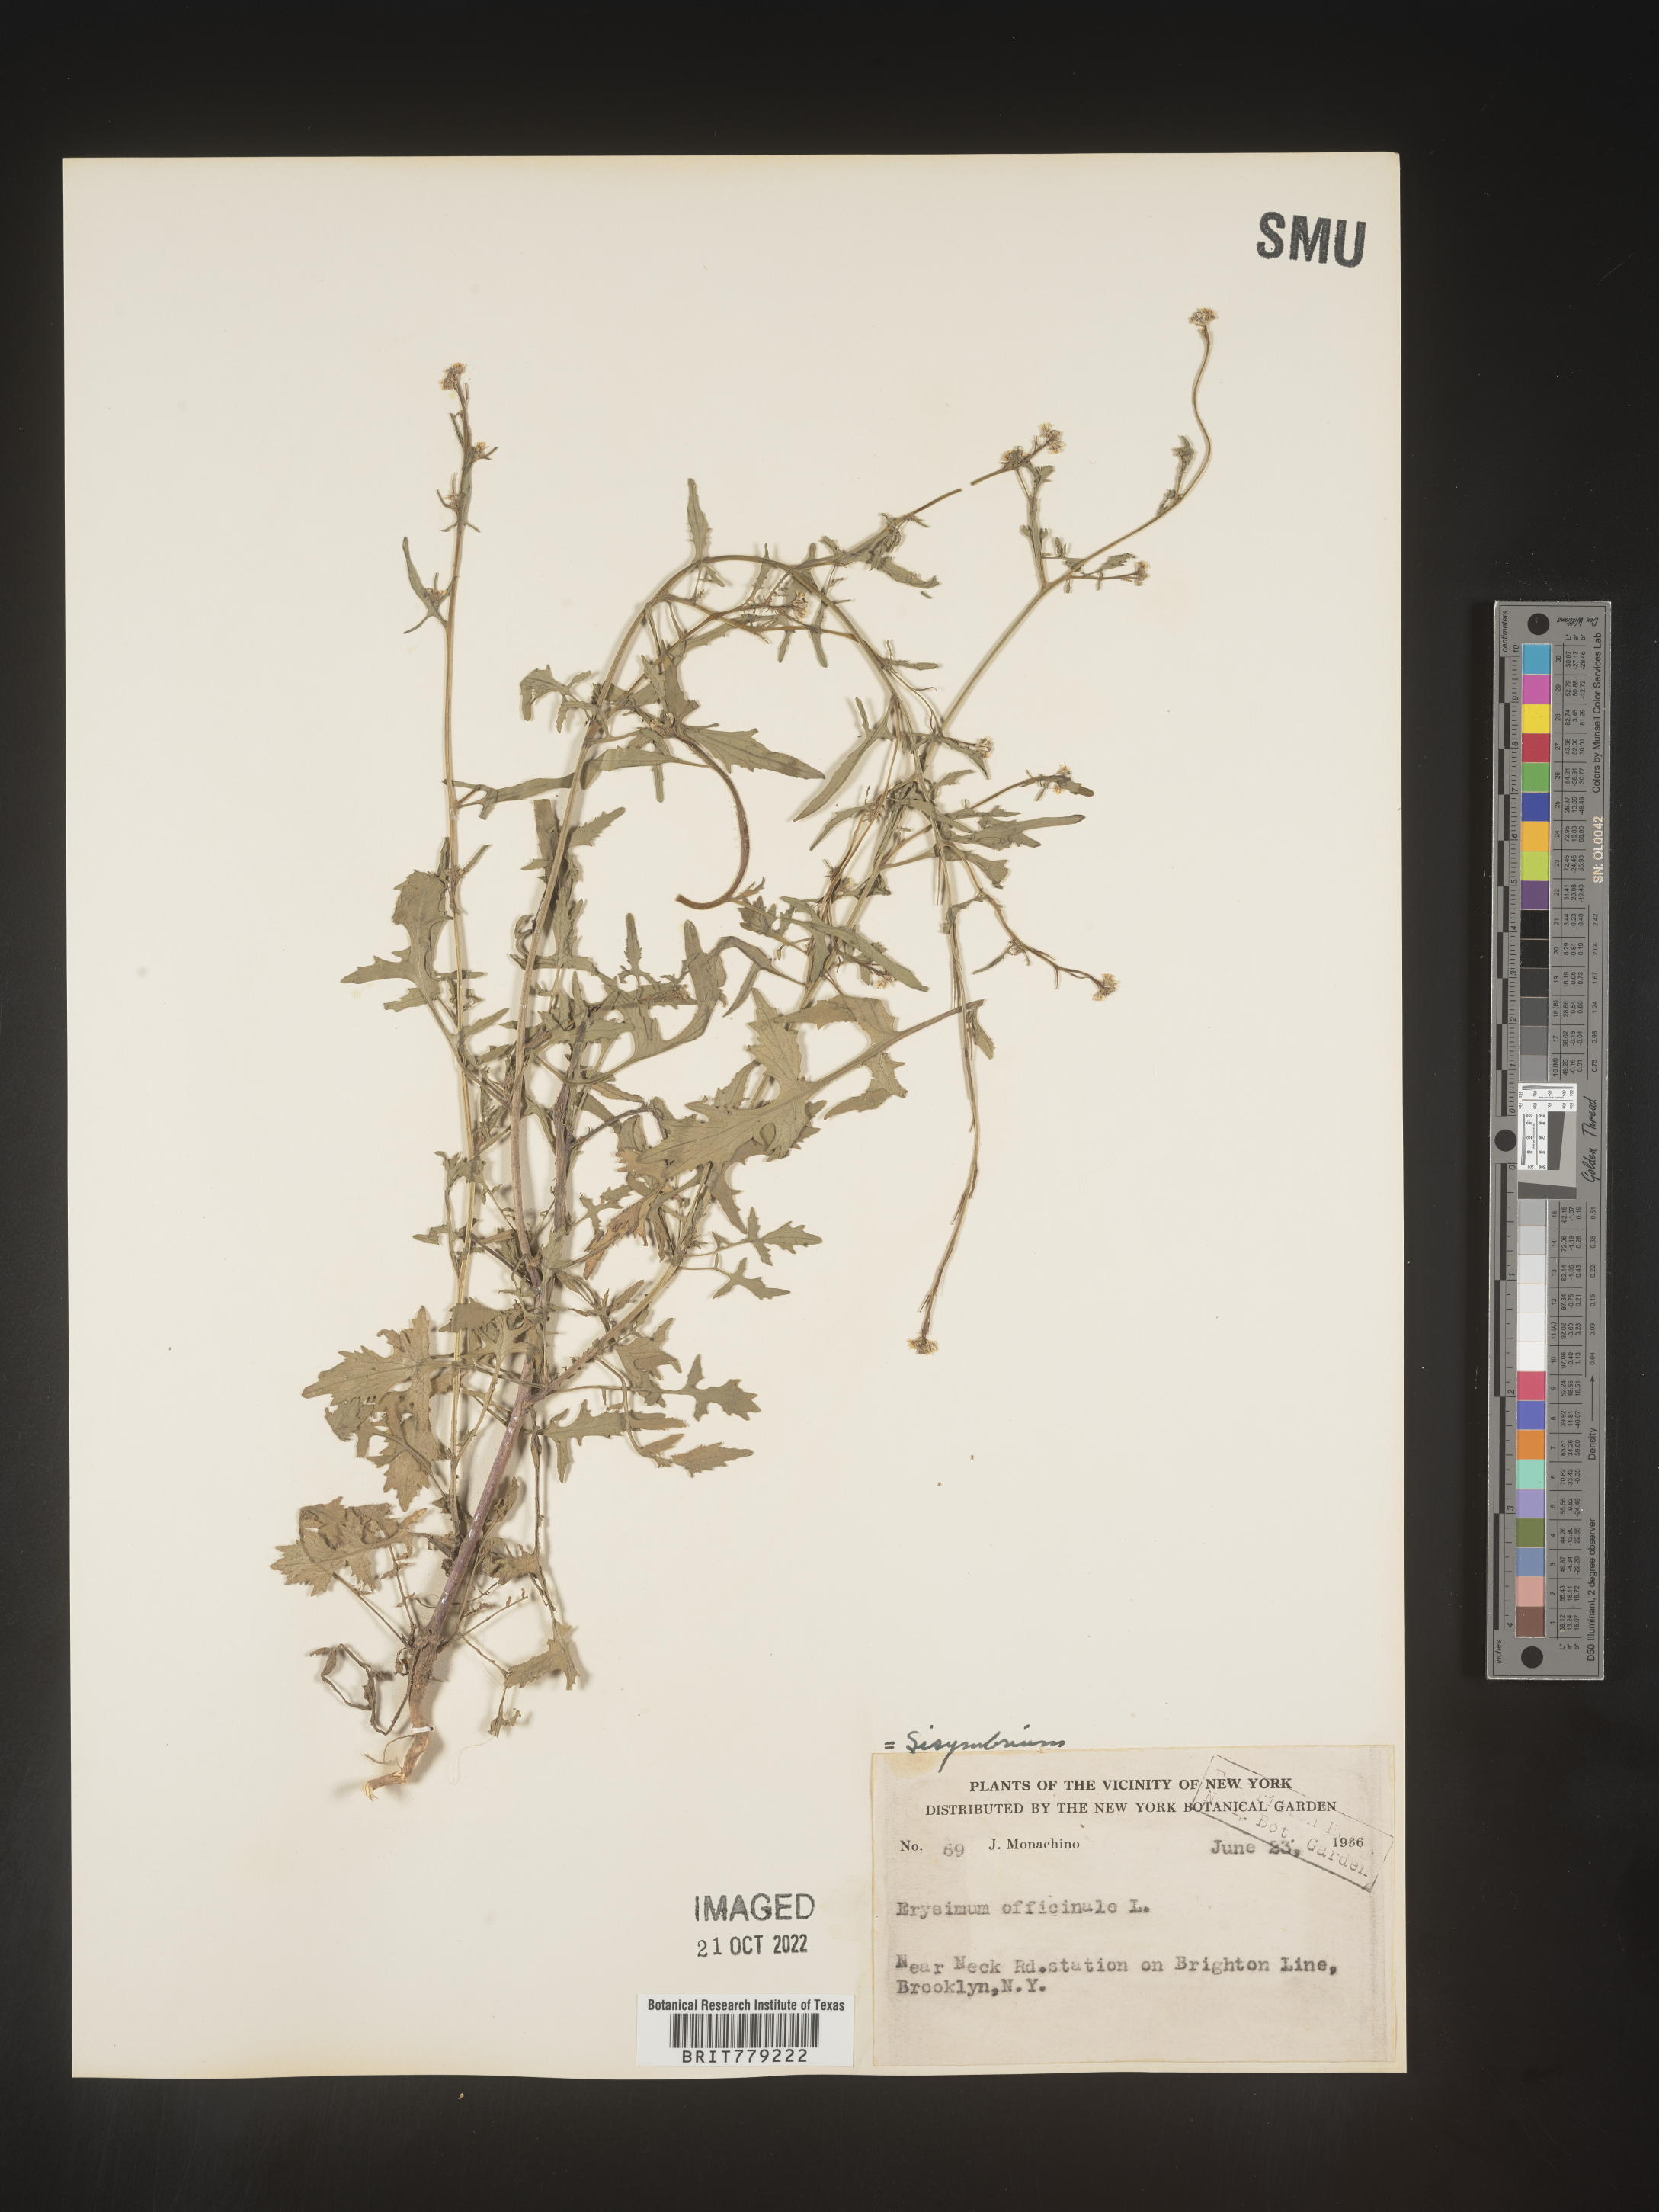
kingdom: Plantae
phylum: Tracheophyta
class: Magnoliopsida
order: Brassicales
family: Brassicaceae
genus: Sisymbrium
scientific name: Sisymbrium officinale
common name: Hedge mustard
